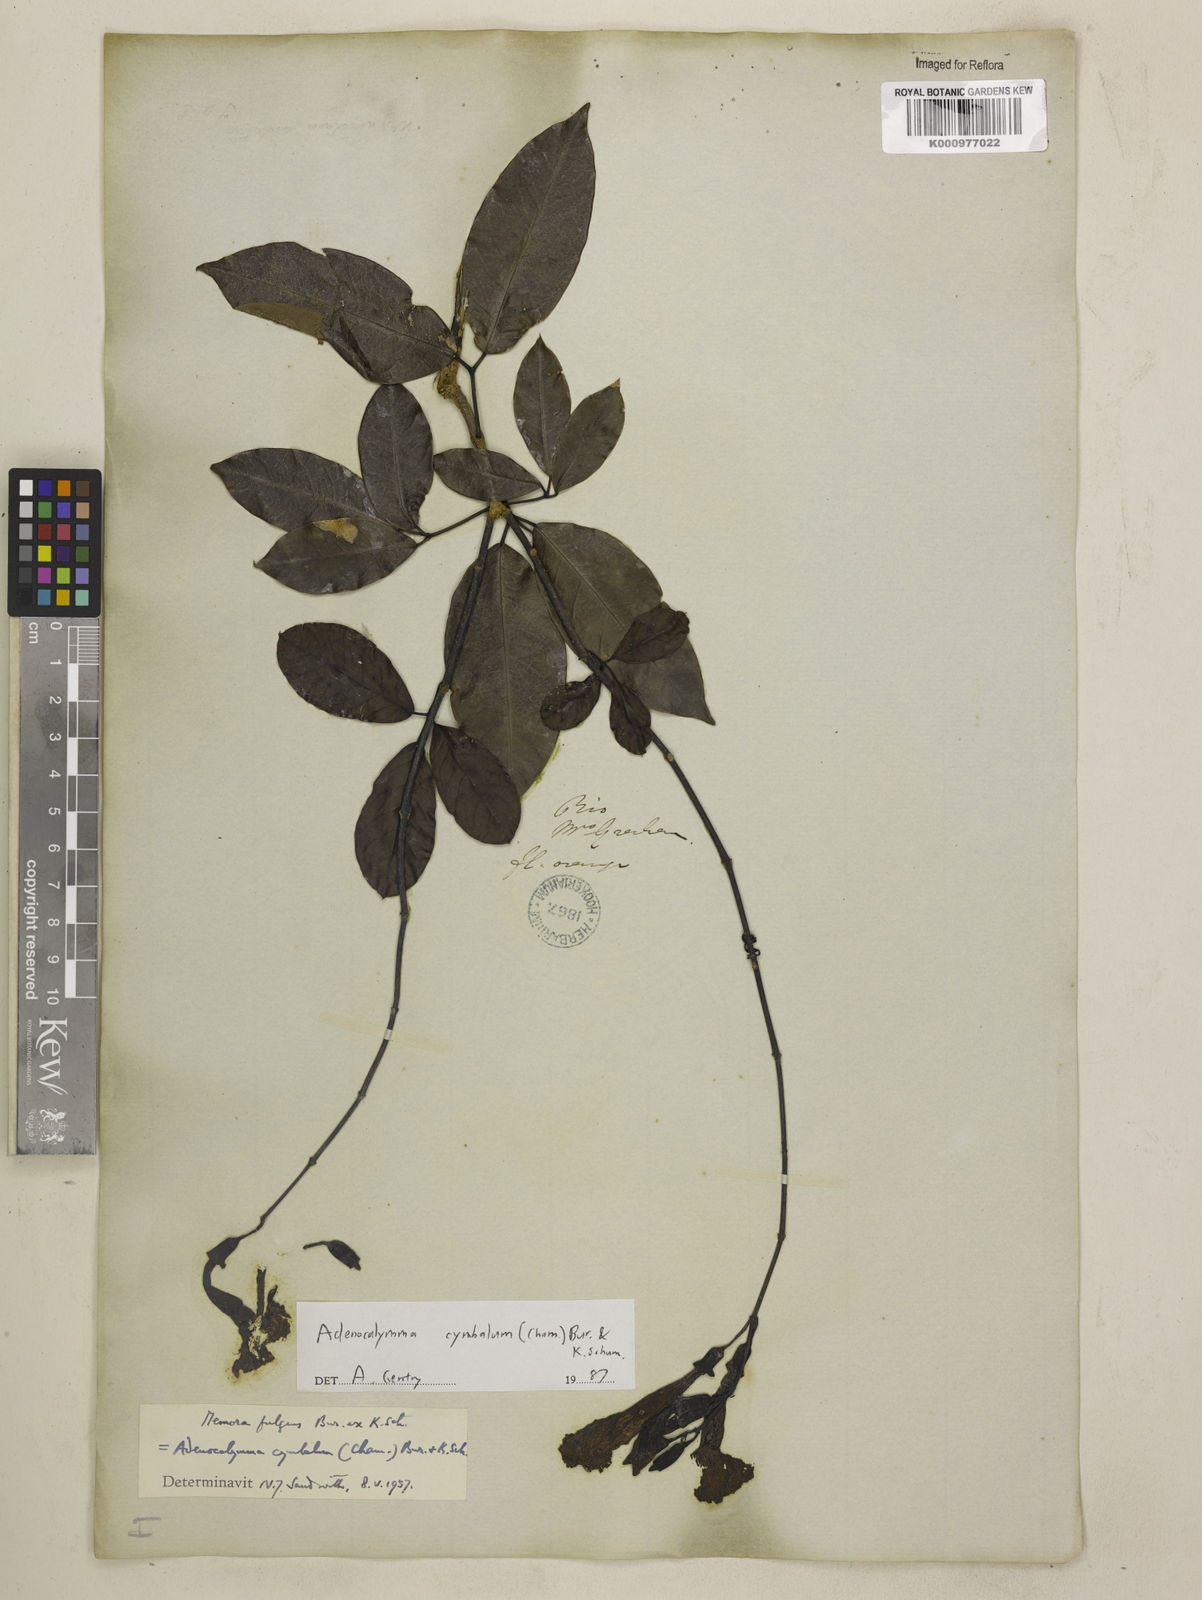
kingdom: Plantae
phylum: Tracheophyta
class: Magnoliopsida
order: Lamiales
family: Bignoniaceae
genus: Adenocalymma
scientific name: Adenocalymma cymbalum
